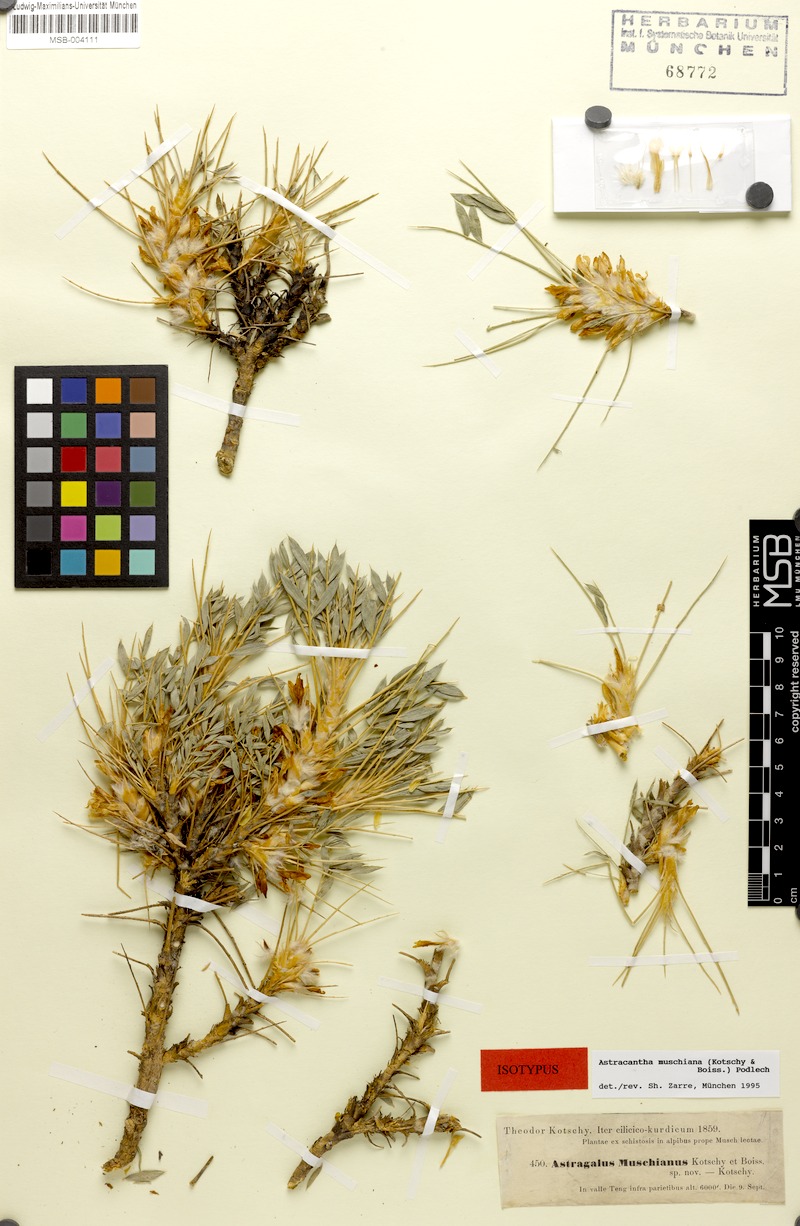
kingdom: Plantae
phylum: Tracheophyta
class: Magnoliopsida
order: Fabales
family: Fabaceae
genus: Astragalus
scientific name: Astragalus muschianus
